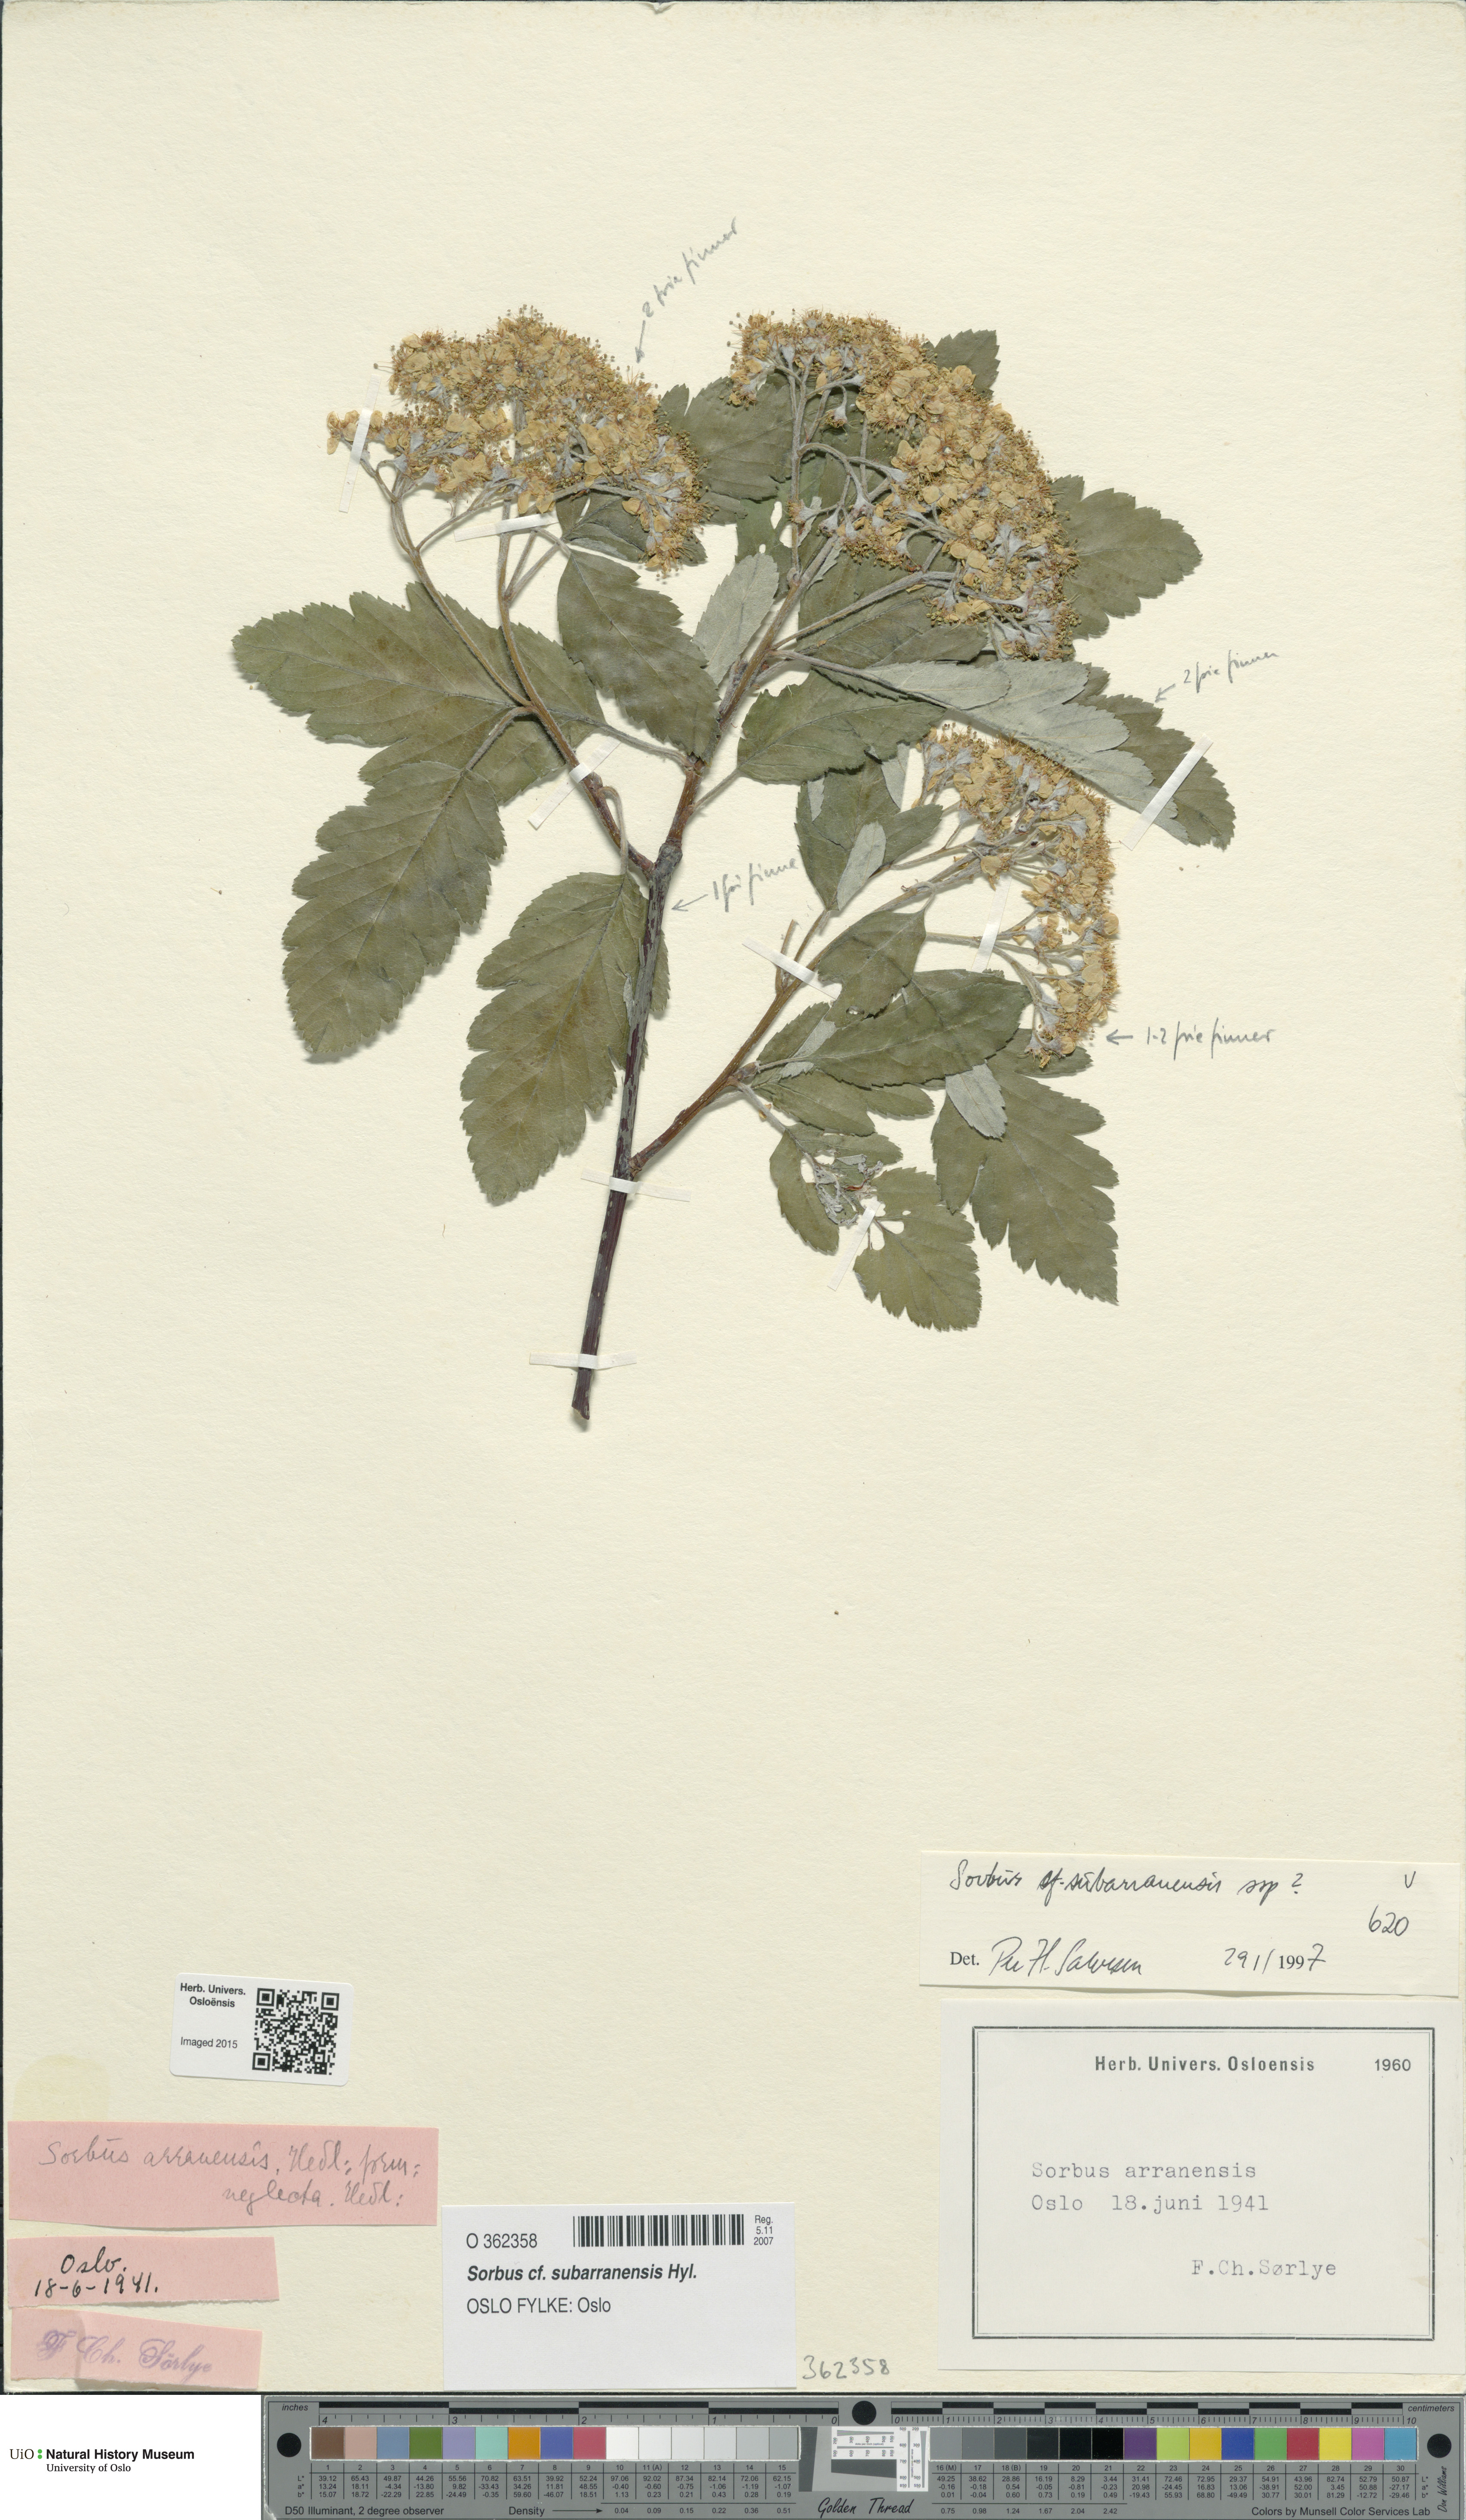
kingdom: Plantae
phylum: Tracheophyta
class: Magnoliopsida
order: Rosales
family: Rosaceae
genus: Hedlundia
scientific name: Hedlundia subarranensis
